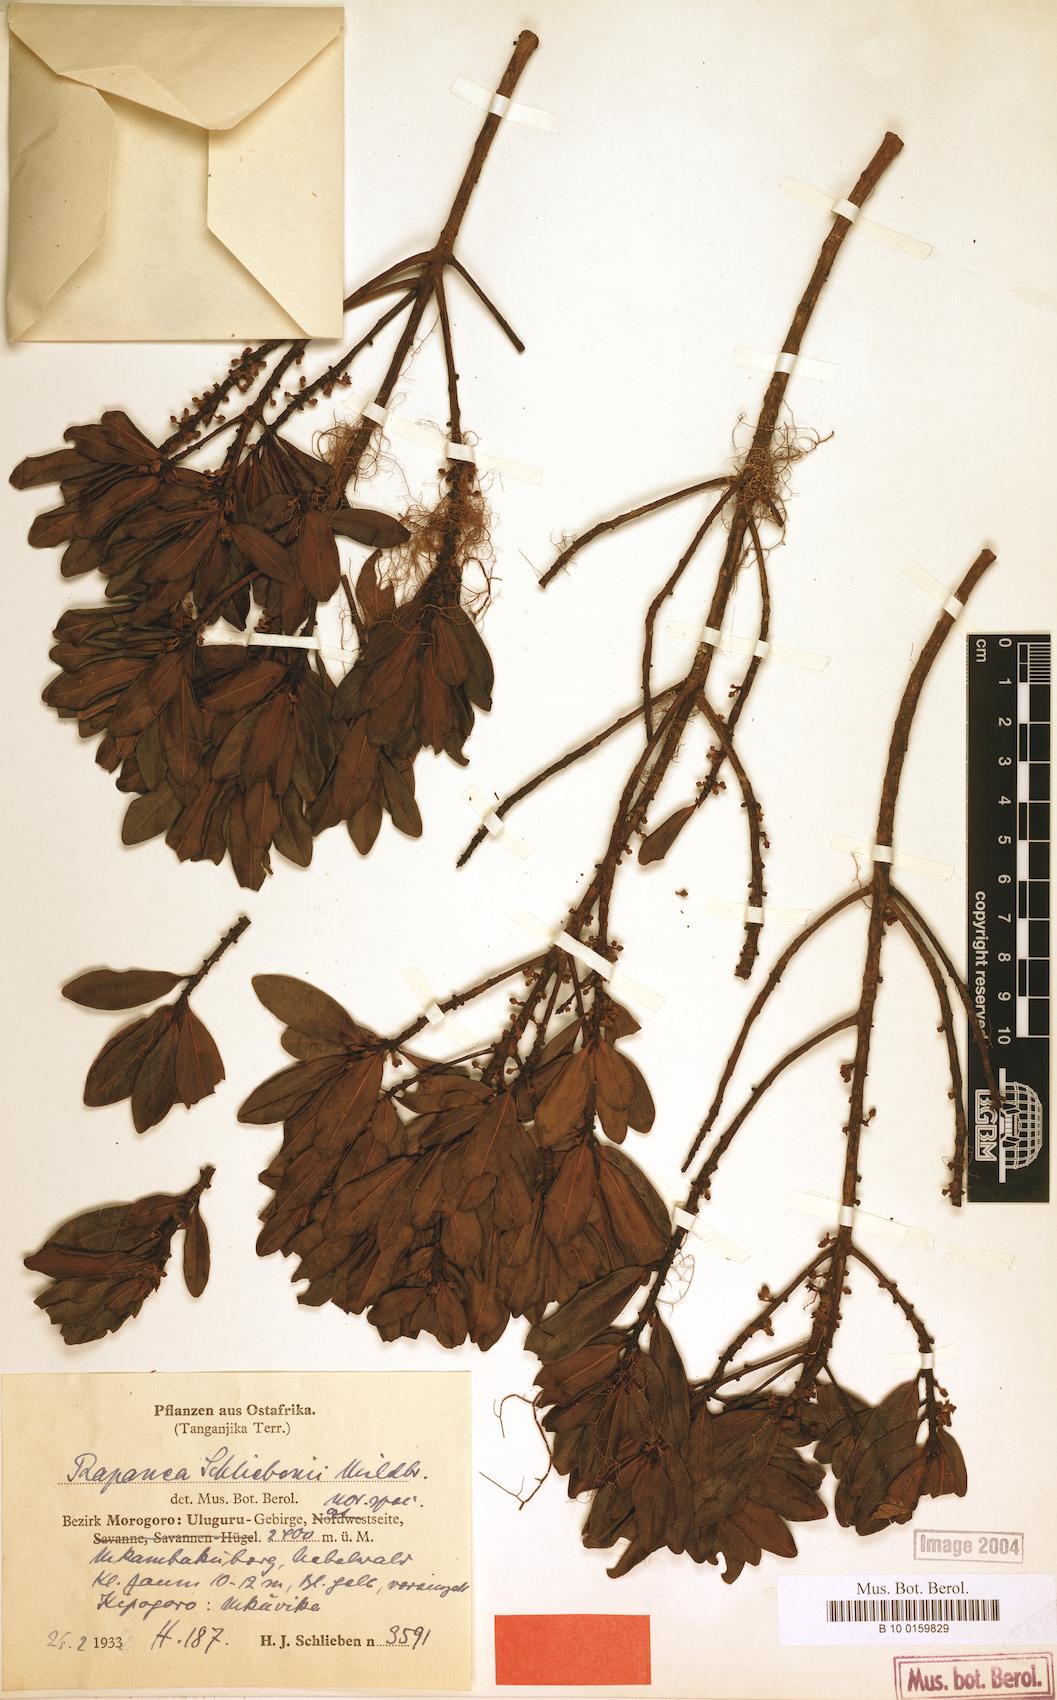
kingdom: Plantae
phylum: Tracheophyta
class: Magnoliopsida
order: Ericales
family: Primulaceae
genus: Myrsine
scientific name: Myrsine melanophloeos
